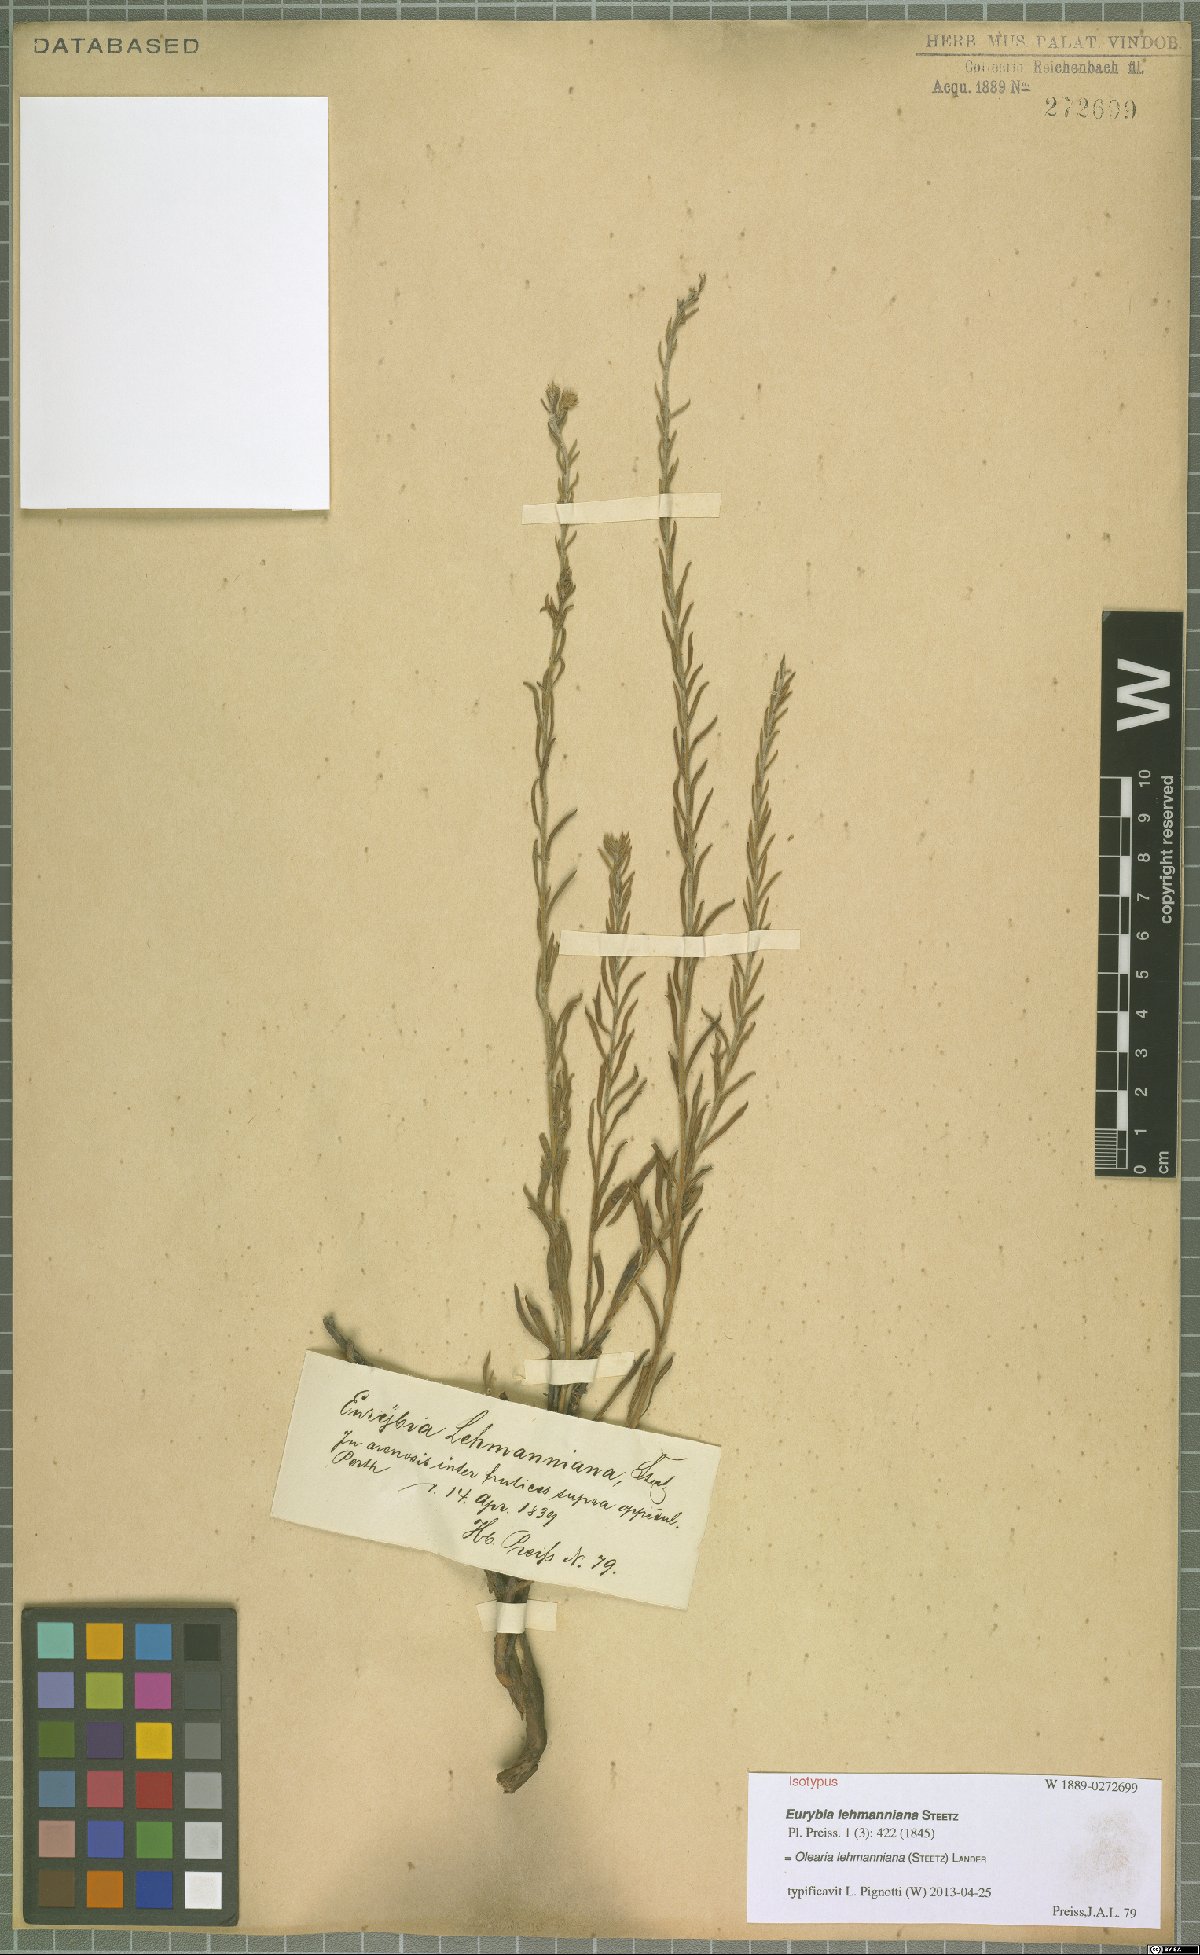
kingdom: Plantae
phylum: Tracheophyta
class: Magnoliopsida
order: Asterales
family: Asteraceae
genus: Olearia
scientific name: Olearia lehmanniana
